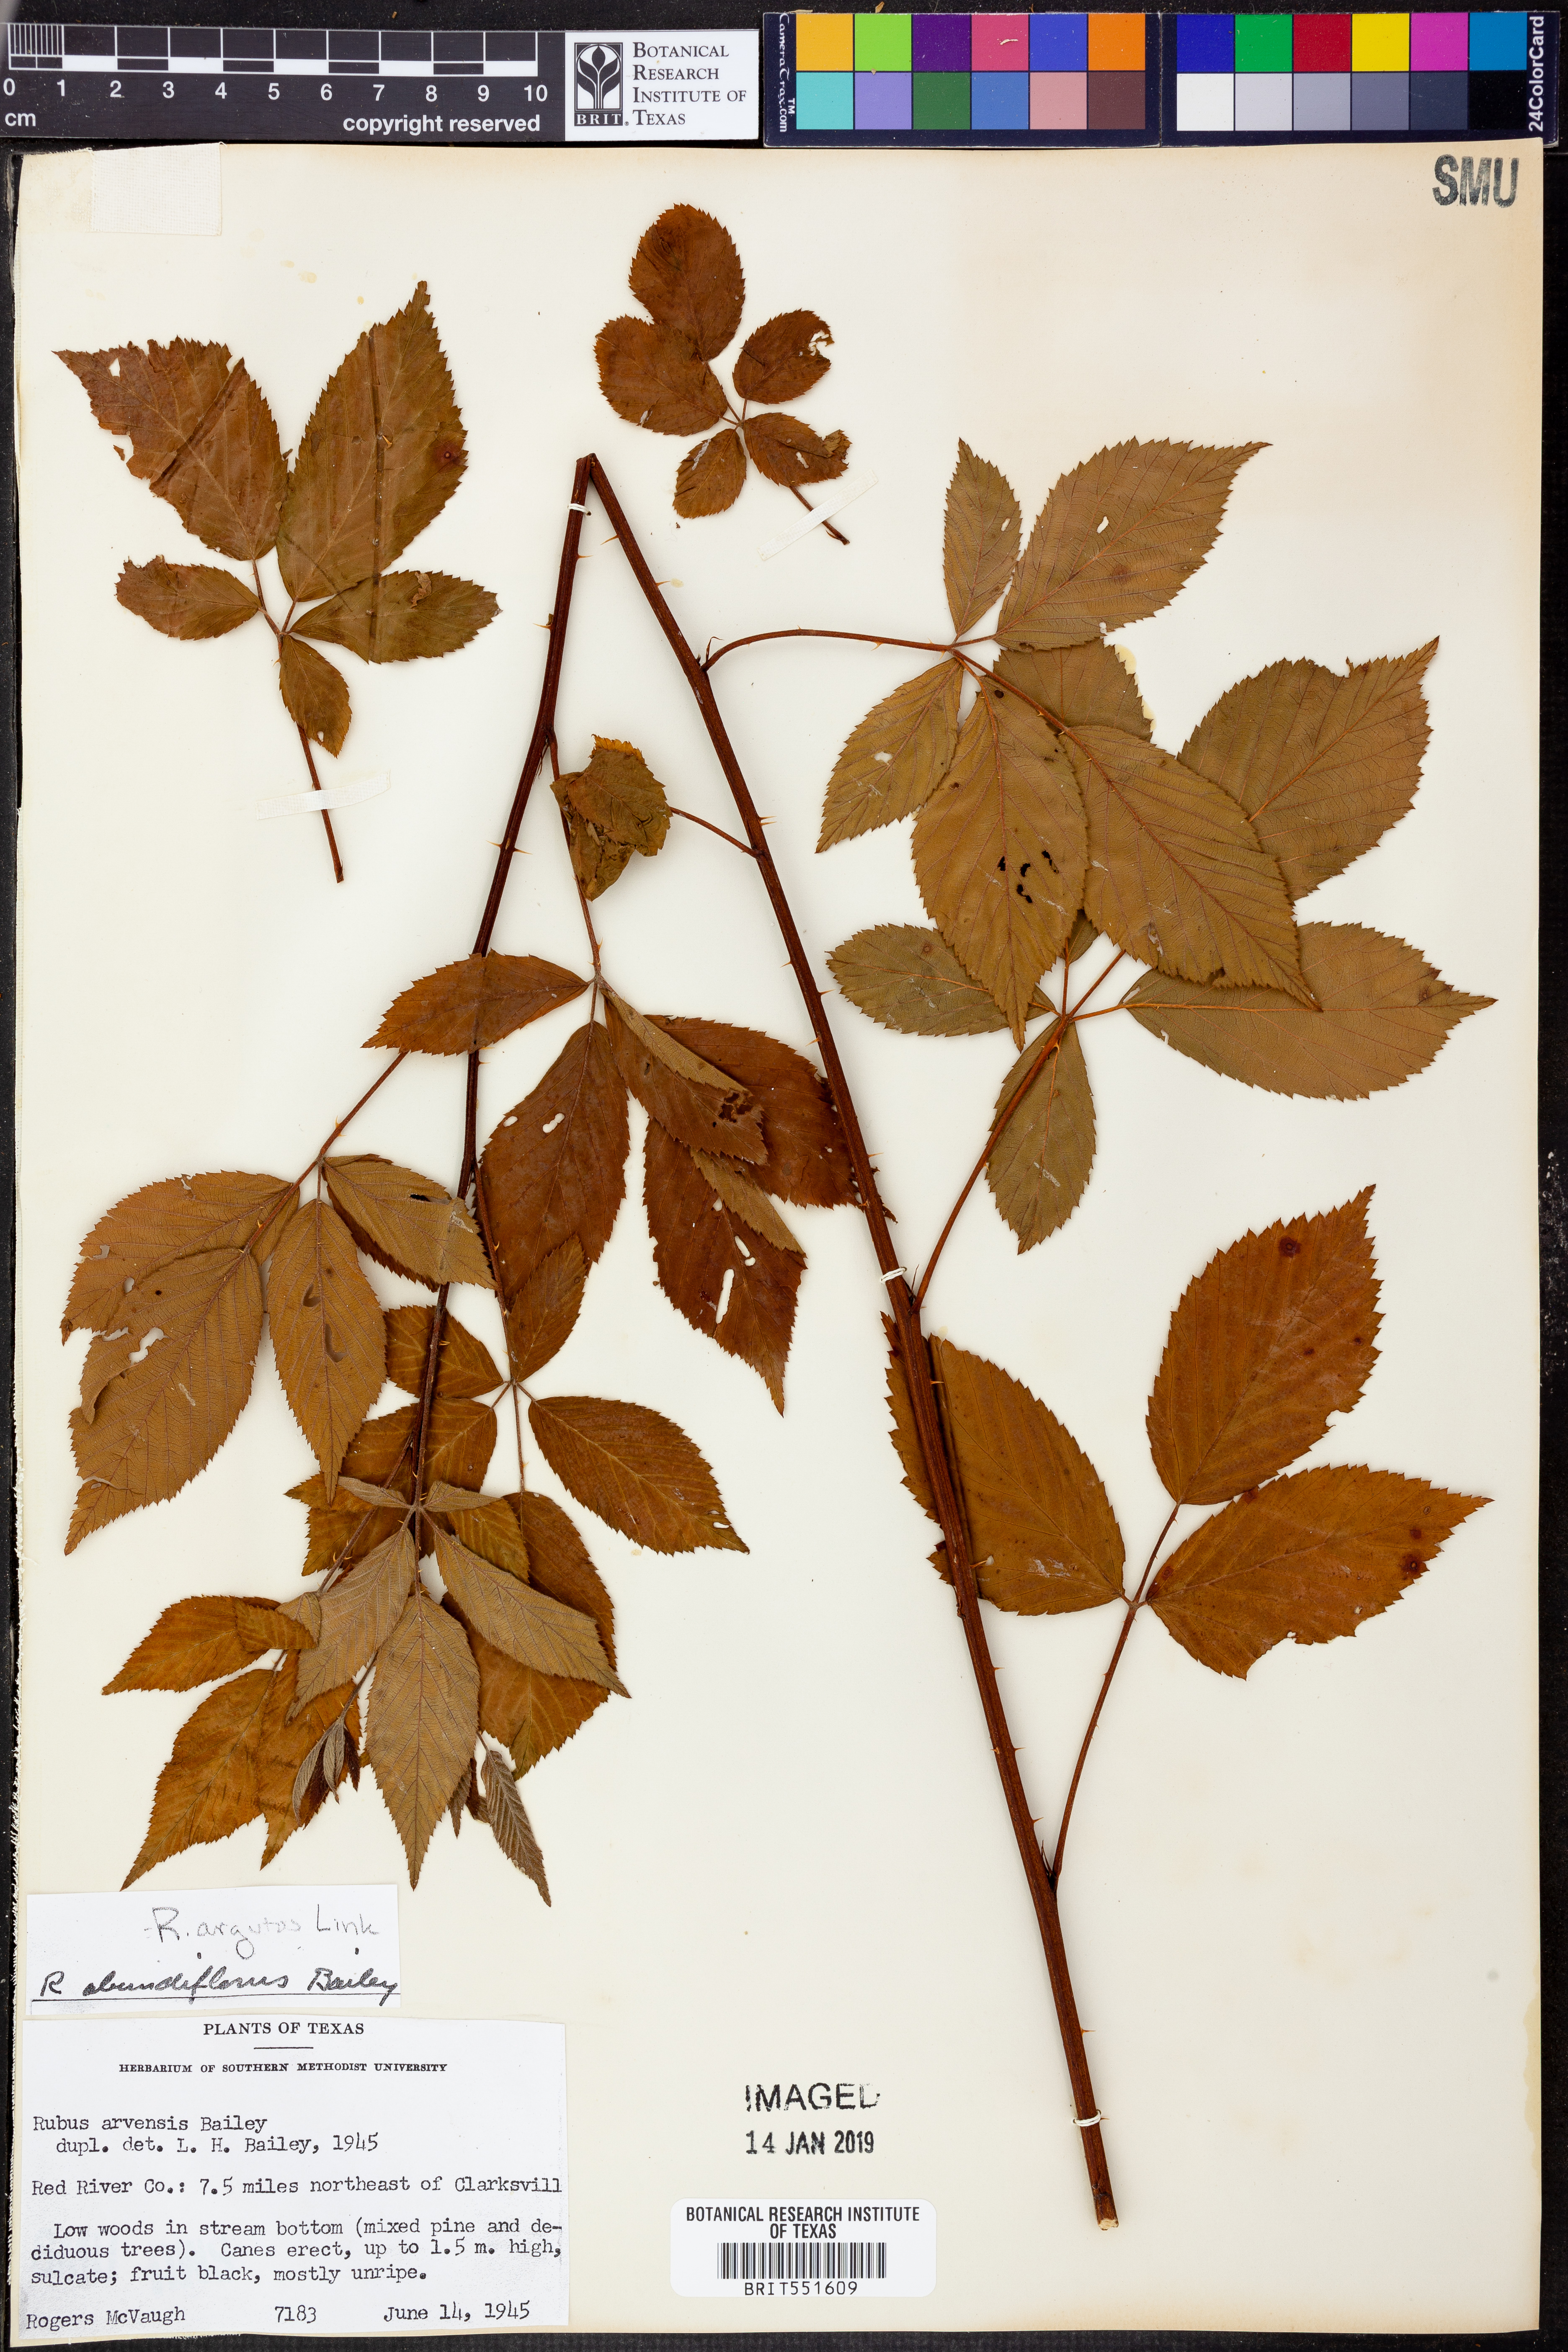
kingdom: Plantae
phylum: Tracheophyta
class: Magnoliopsida
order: Rosales
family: Rosaceae
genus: Rubus
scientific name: Rubus argutus
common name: Sawtooth blackberry
